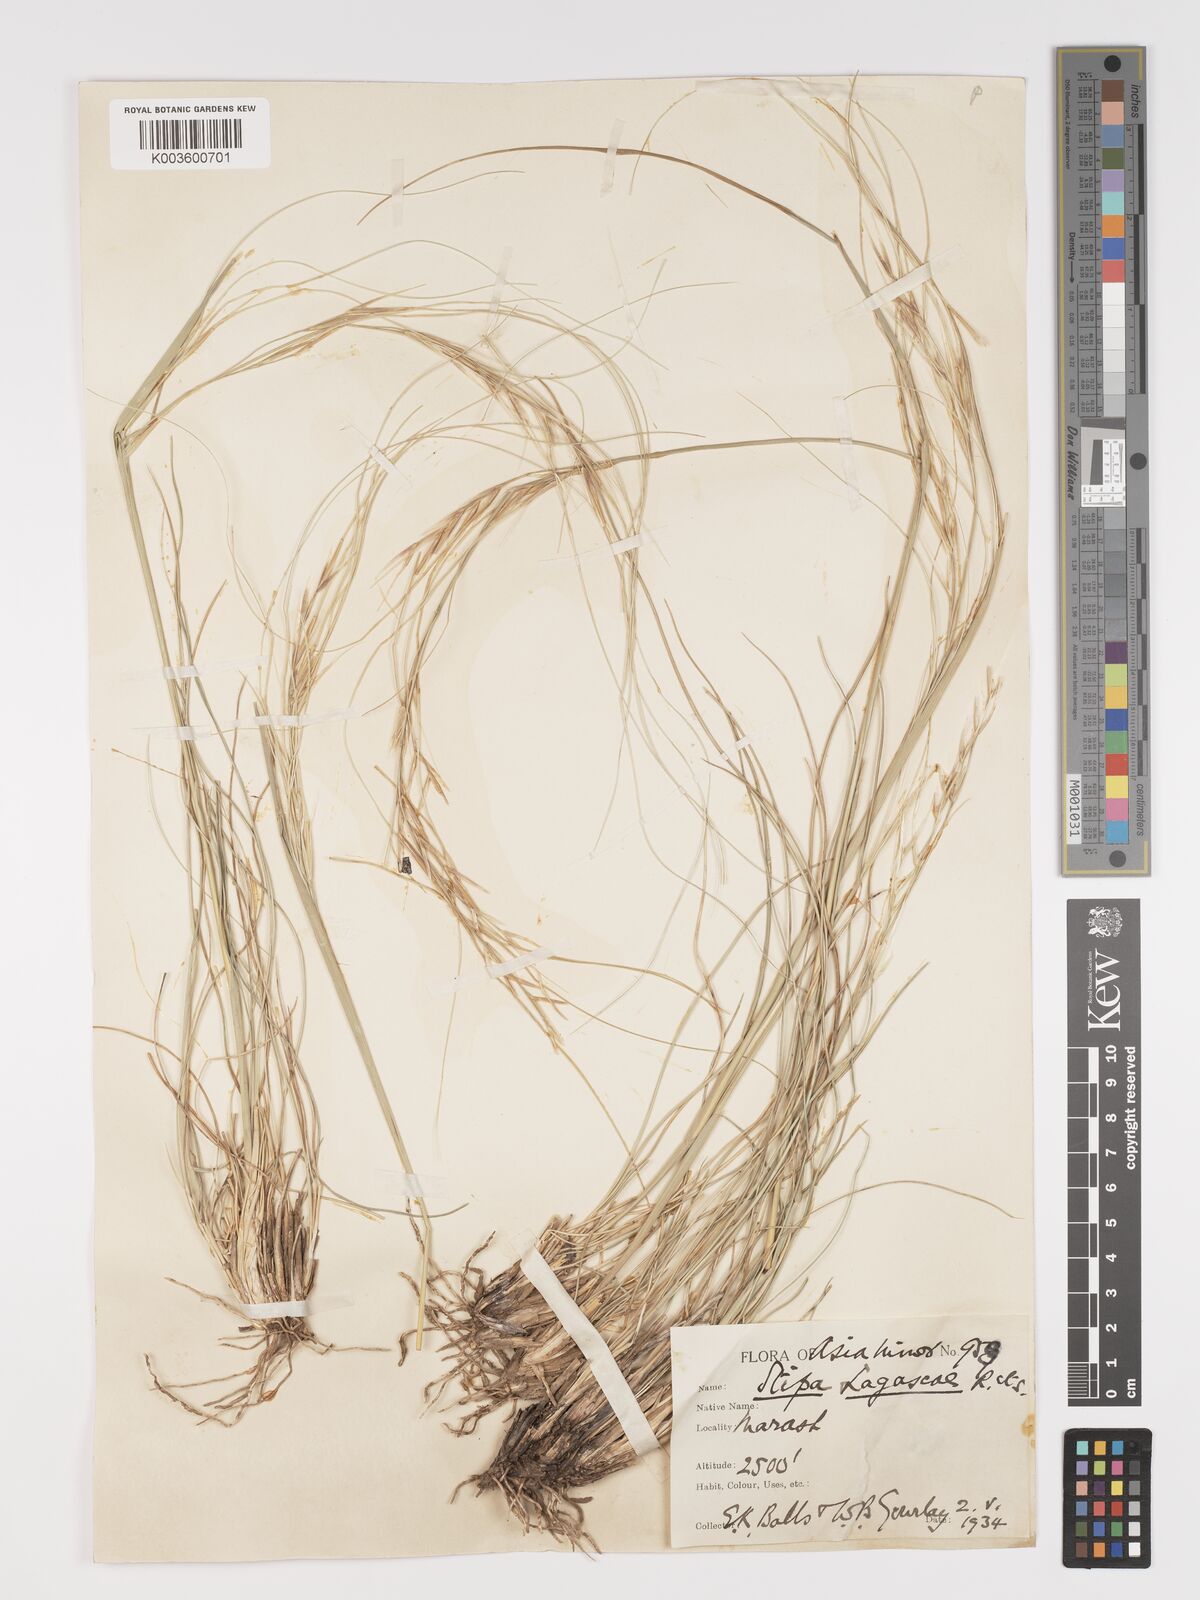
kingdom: Plantae
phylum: Tracheophyta
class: Liliopsida
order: Poales
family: Poaceae
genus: Stipa
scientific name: Stipa holosericea
